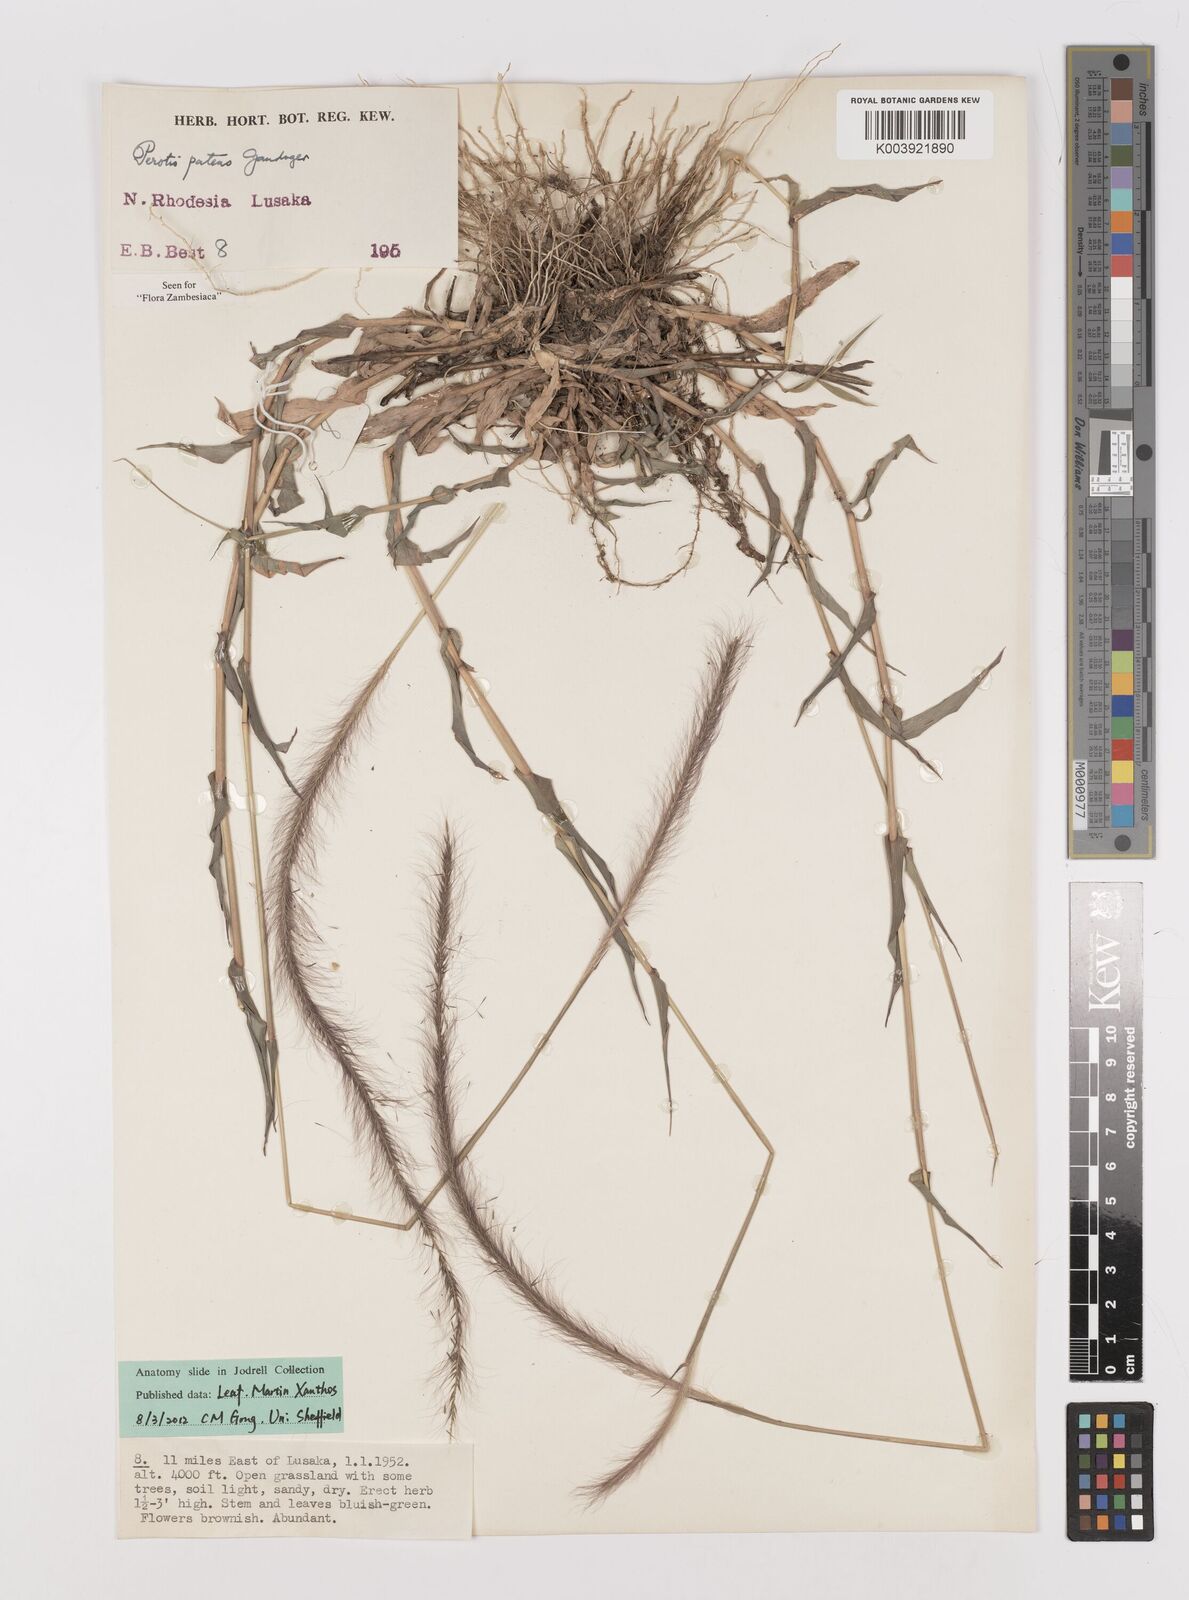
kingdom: Plantae
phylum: Tracheophyta
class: Liliopsida
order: Poales
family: Poaceae
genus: Perotis
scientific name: Perotis patens
